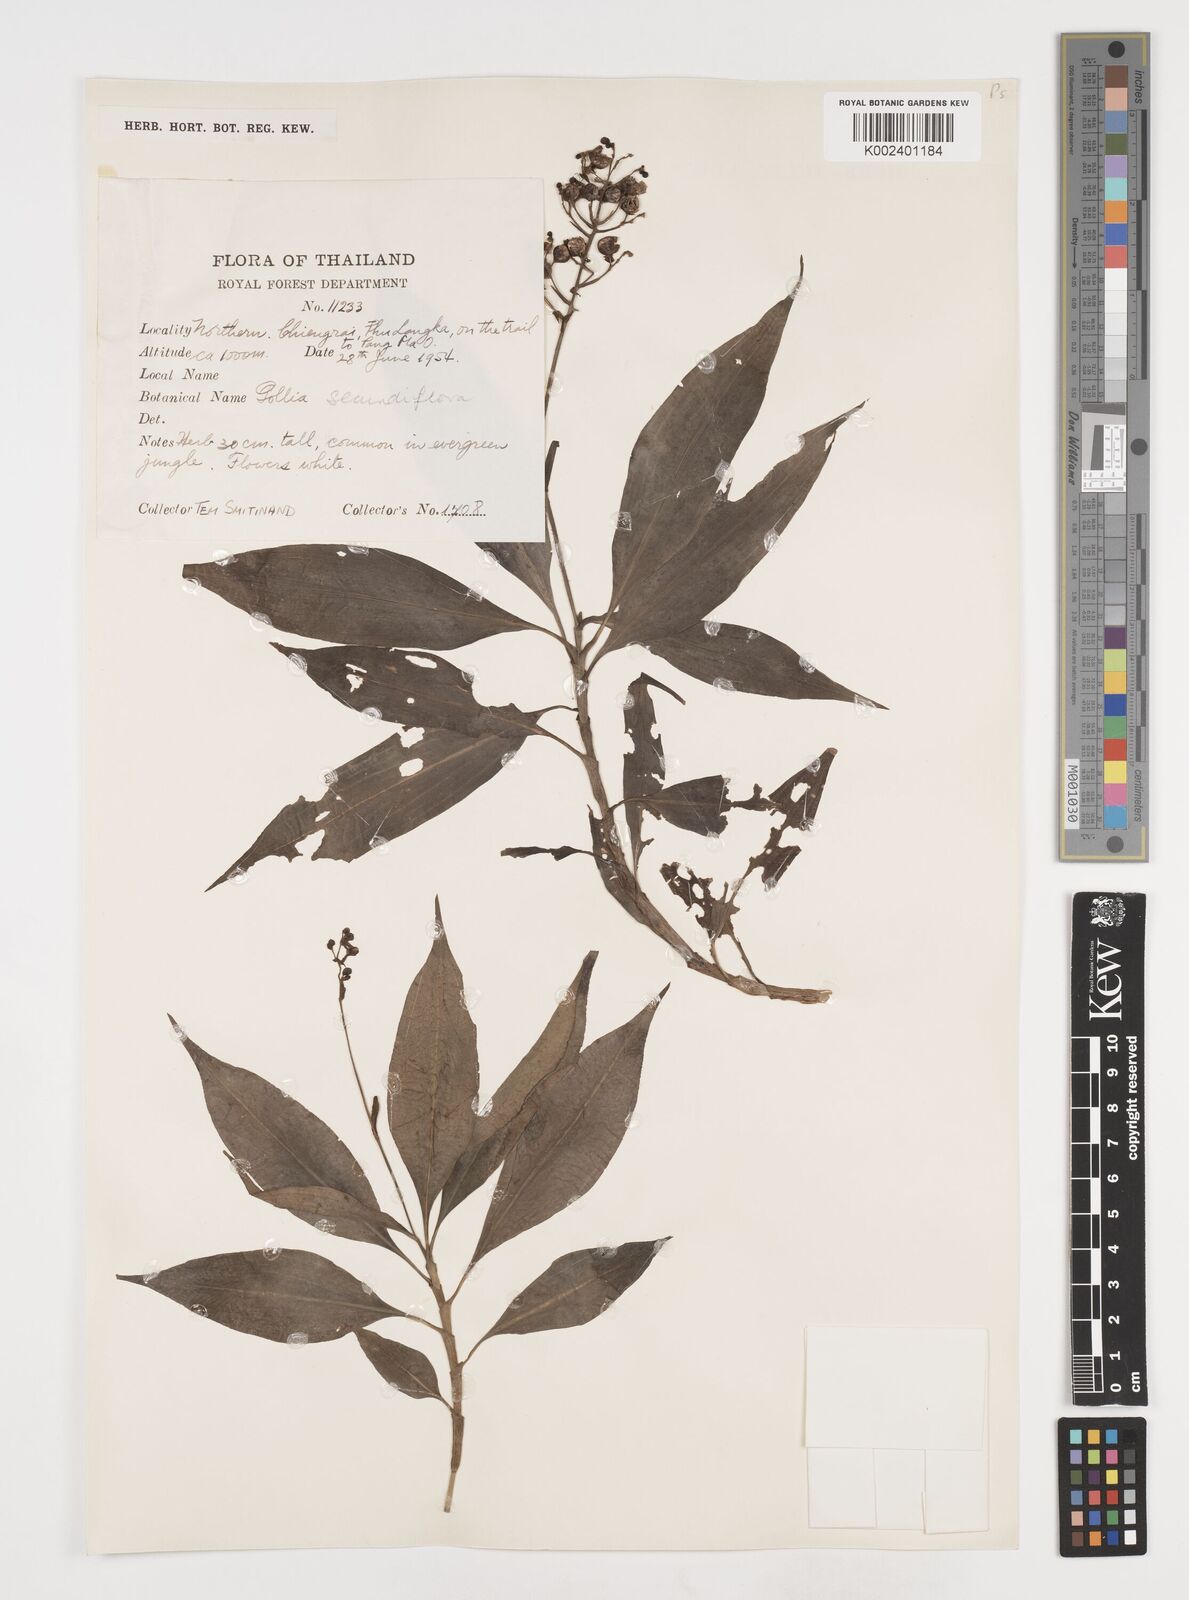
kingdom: Plantae
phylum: Tracheophyta
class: Liliopsida
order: Commelinales
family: Commelinaceae
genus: Pollia
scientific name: Pollia secundiflora
